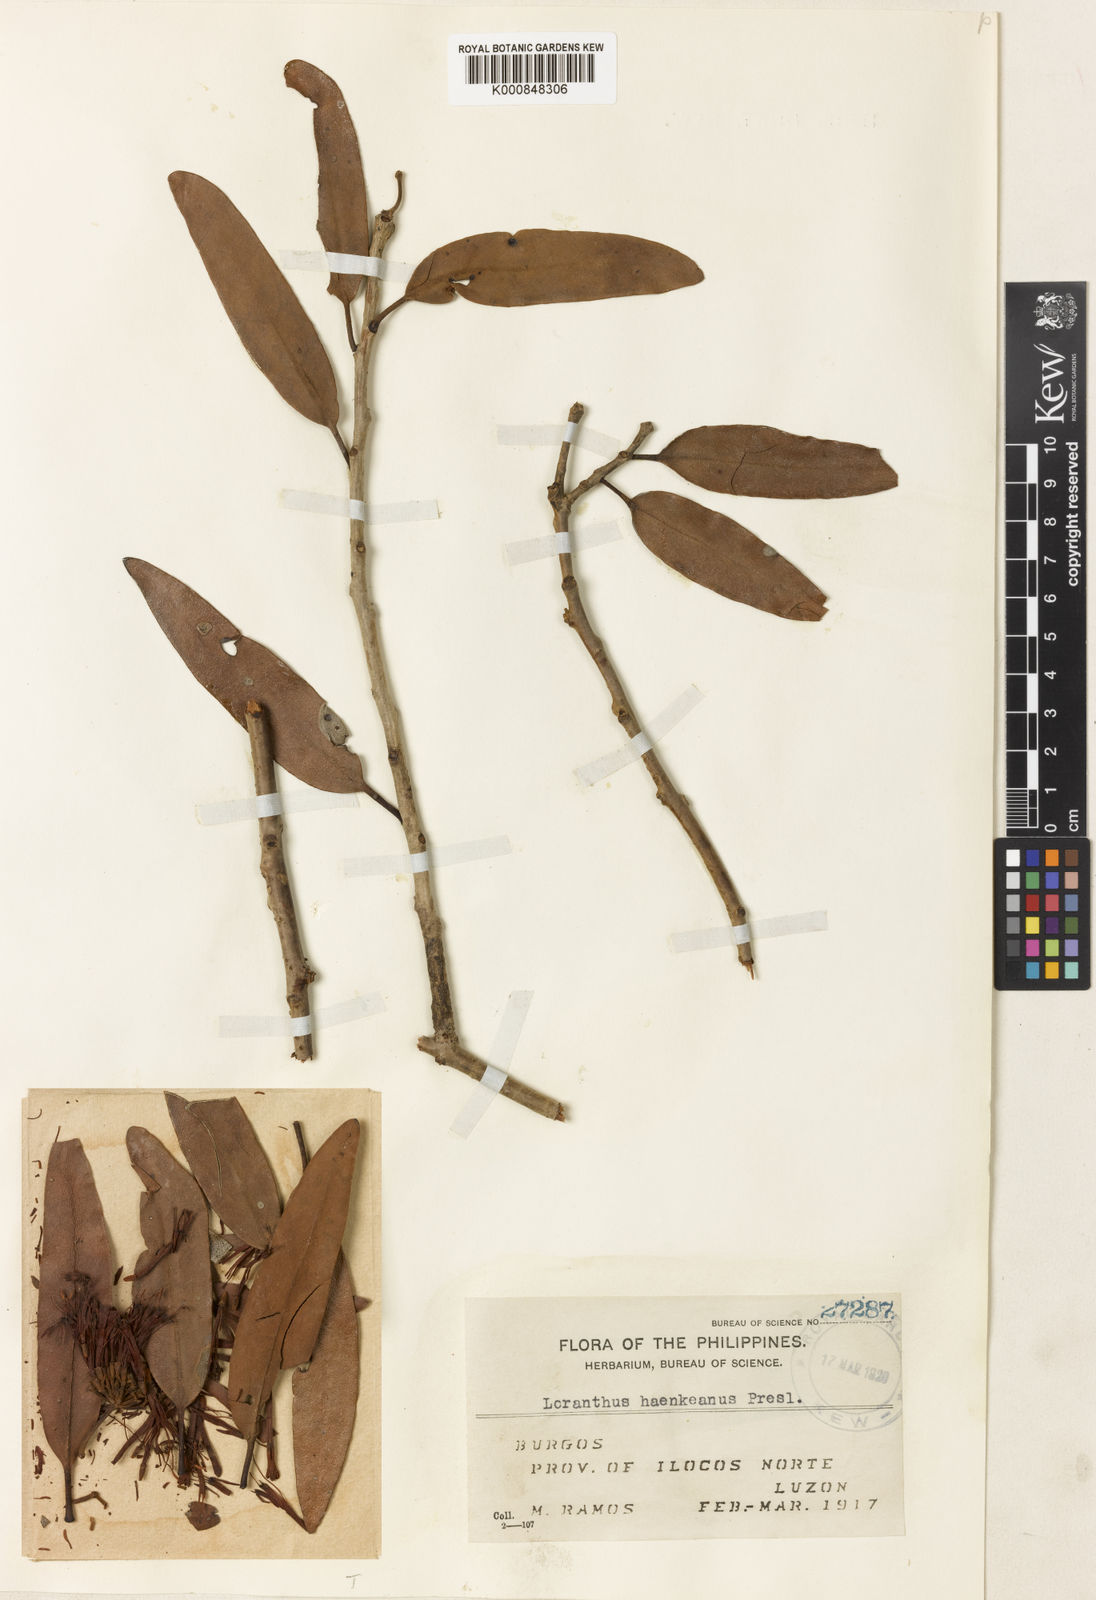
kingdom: Plantae
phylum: Tracheophyta
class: Magnoliopsida
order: Santalales
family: Loranthaceae
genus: Amyema
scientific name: Amyema haenkeana
